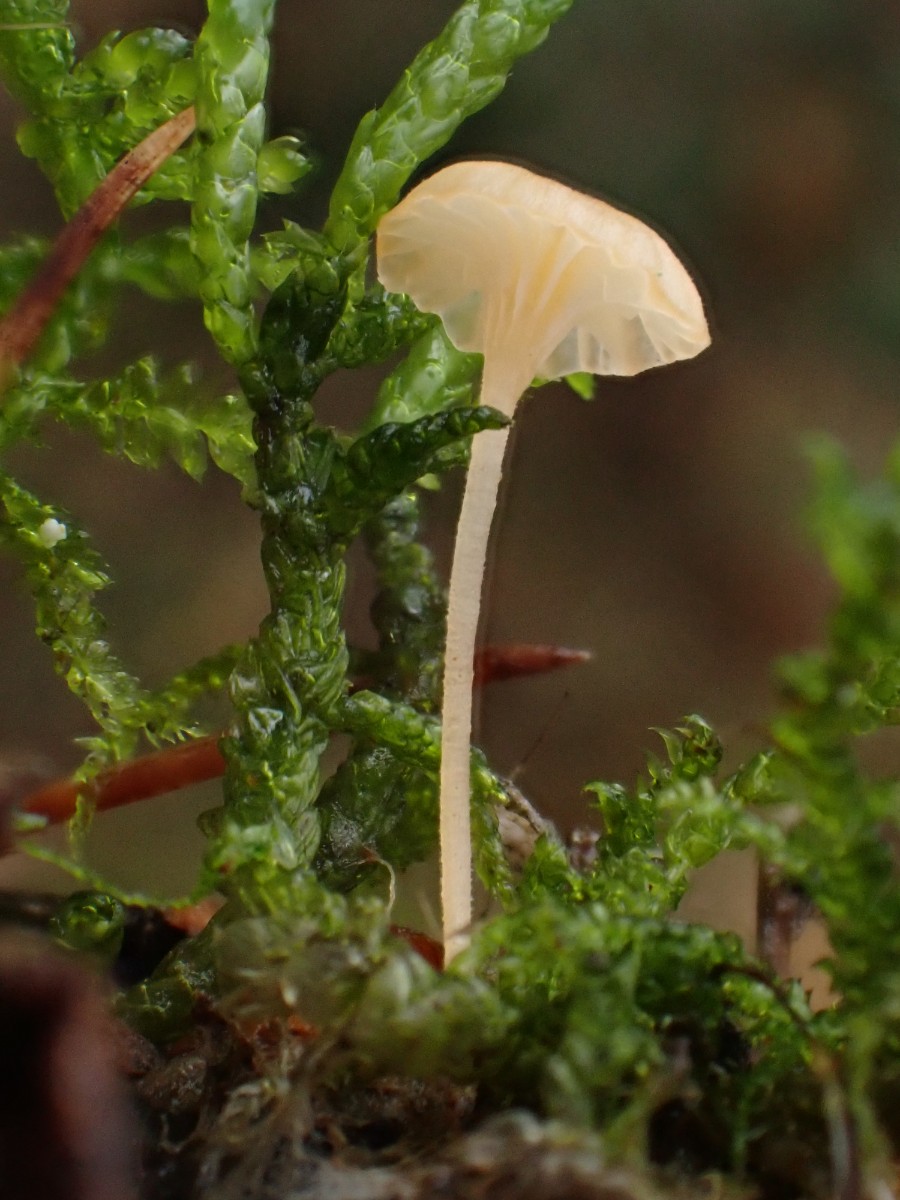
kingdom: Fungi
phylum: Basidiomycota
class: Agaricomycetes
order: Hymenochaetales
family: Rickenellaceae
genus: Rickenella
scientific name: Rickenella fibula
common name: orange mosnavlehat
